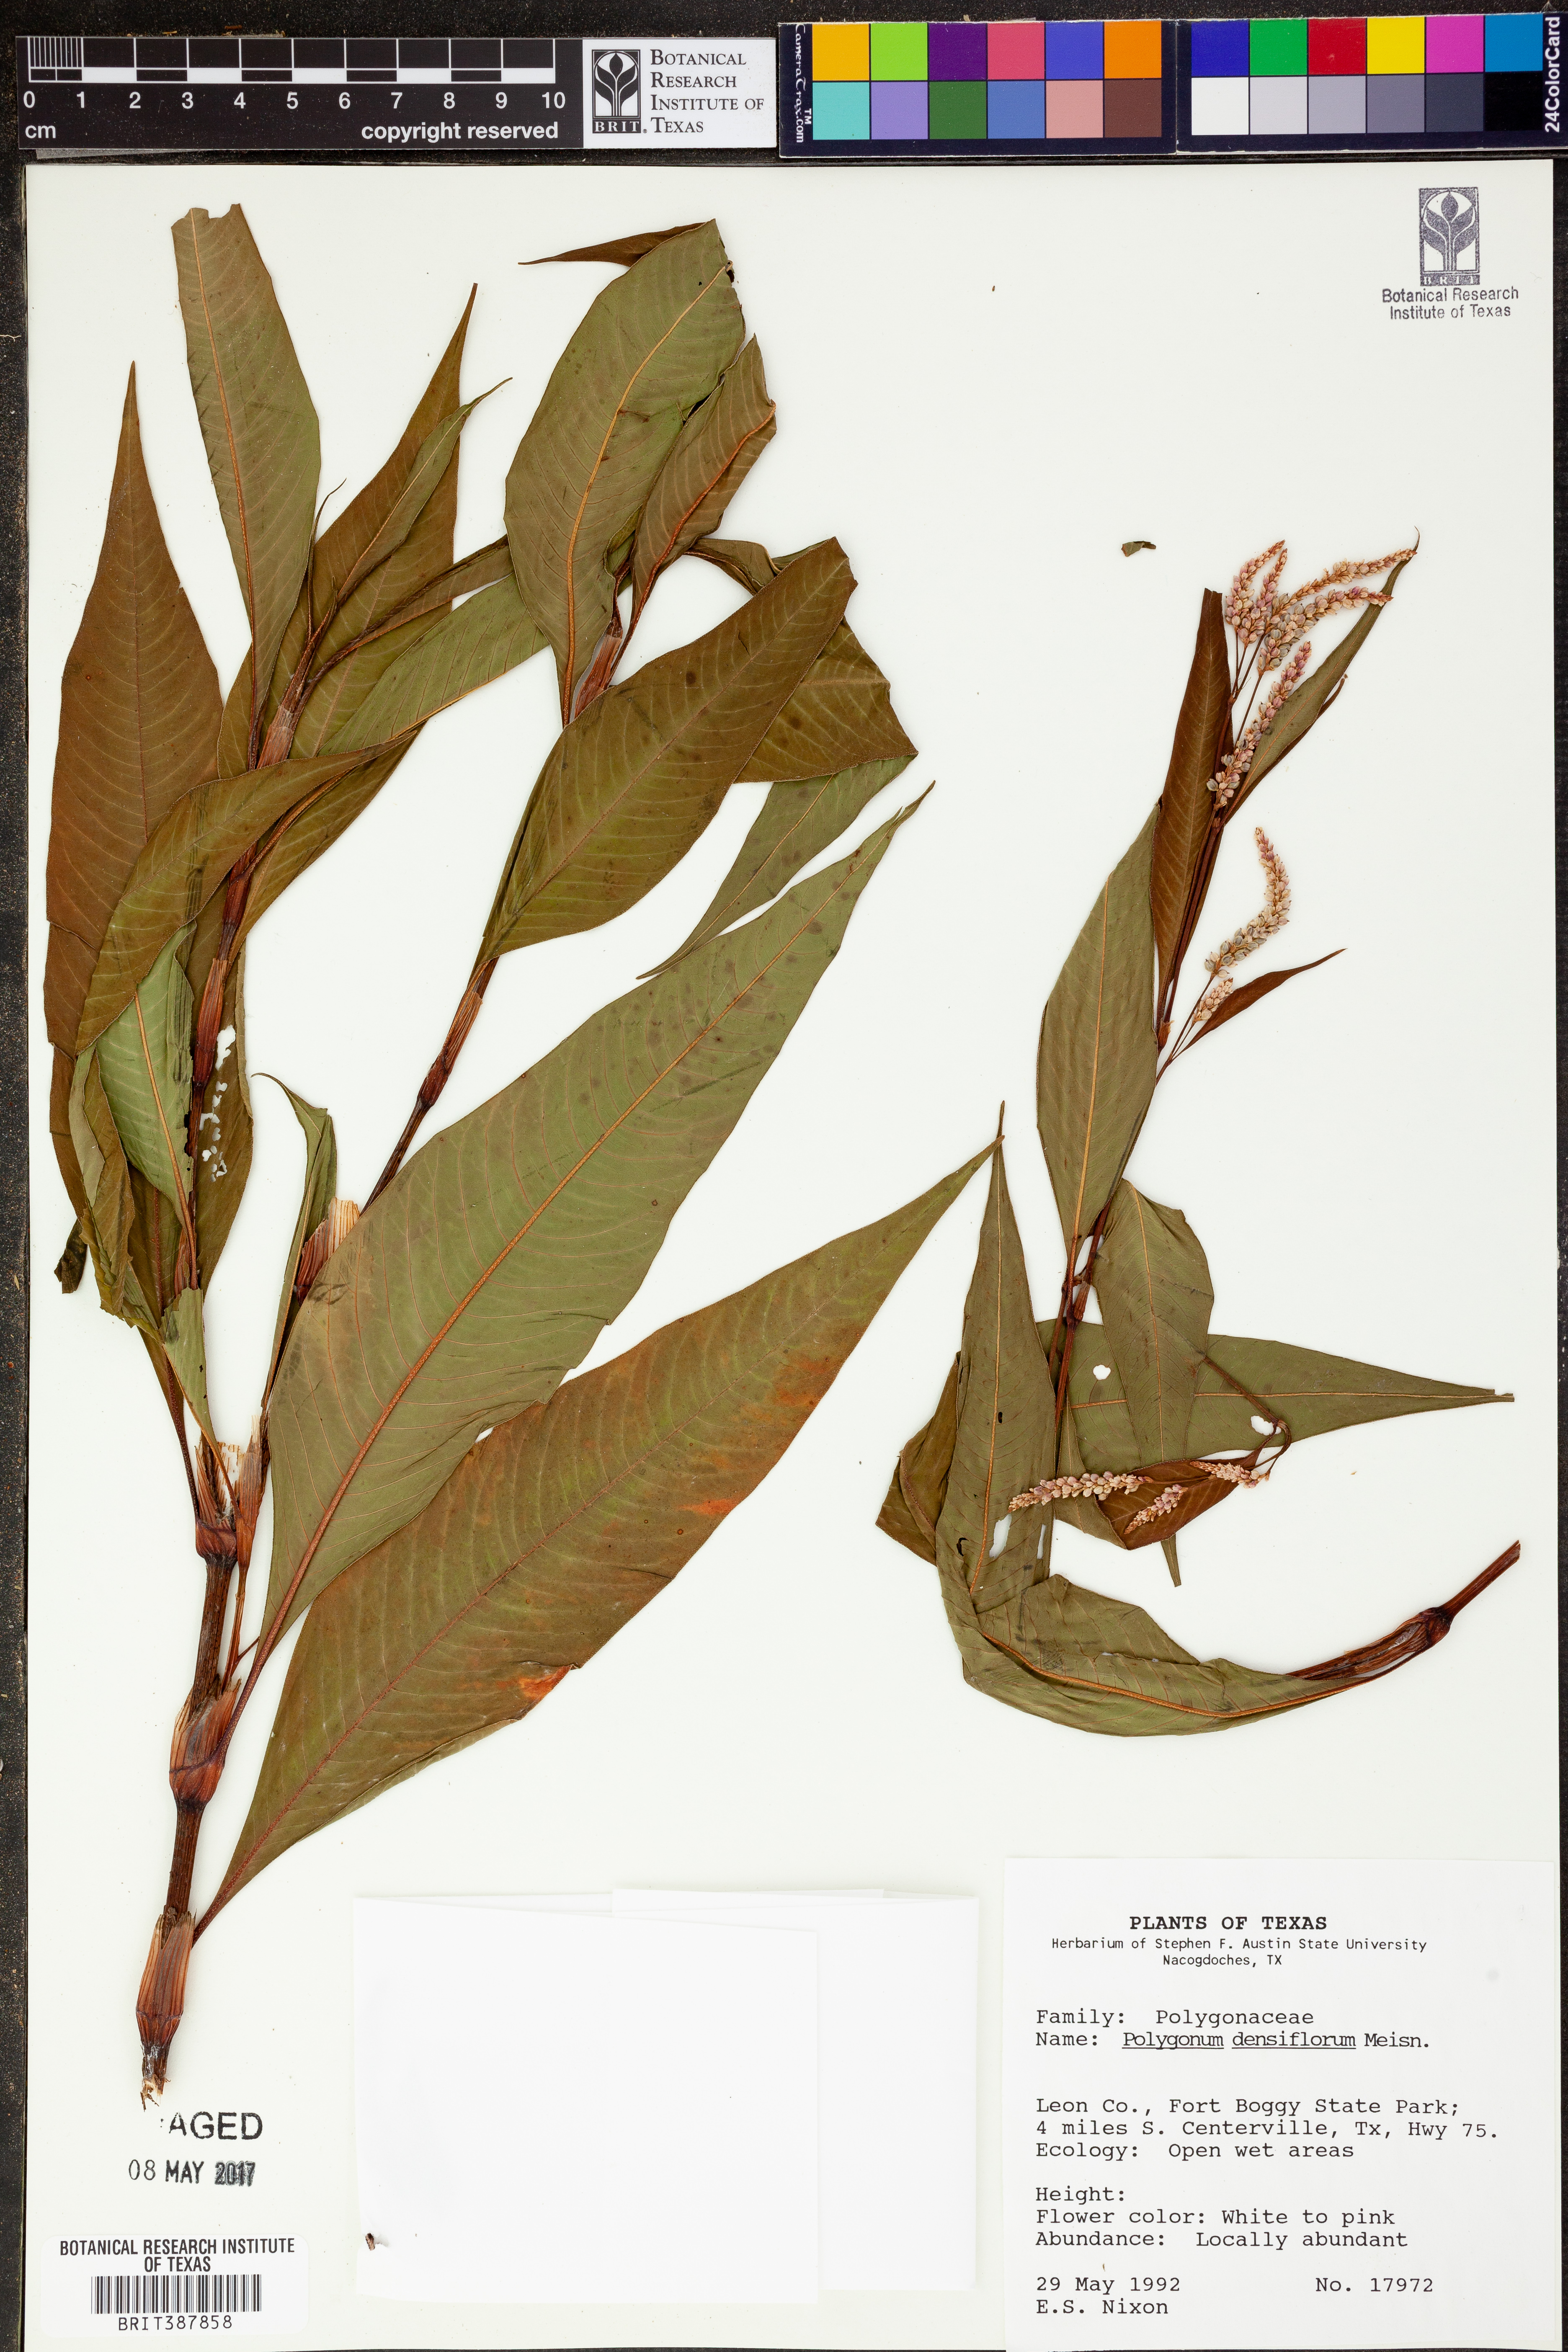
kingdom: Plantae
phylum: Tracheophyta
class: Magnoliopsida
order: Caryophyllales
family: Polygonaceae
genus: Persicaria
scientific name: Persicaria glabra
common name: Denseflower knotweed
